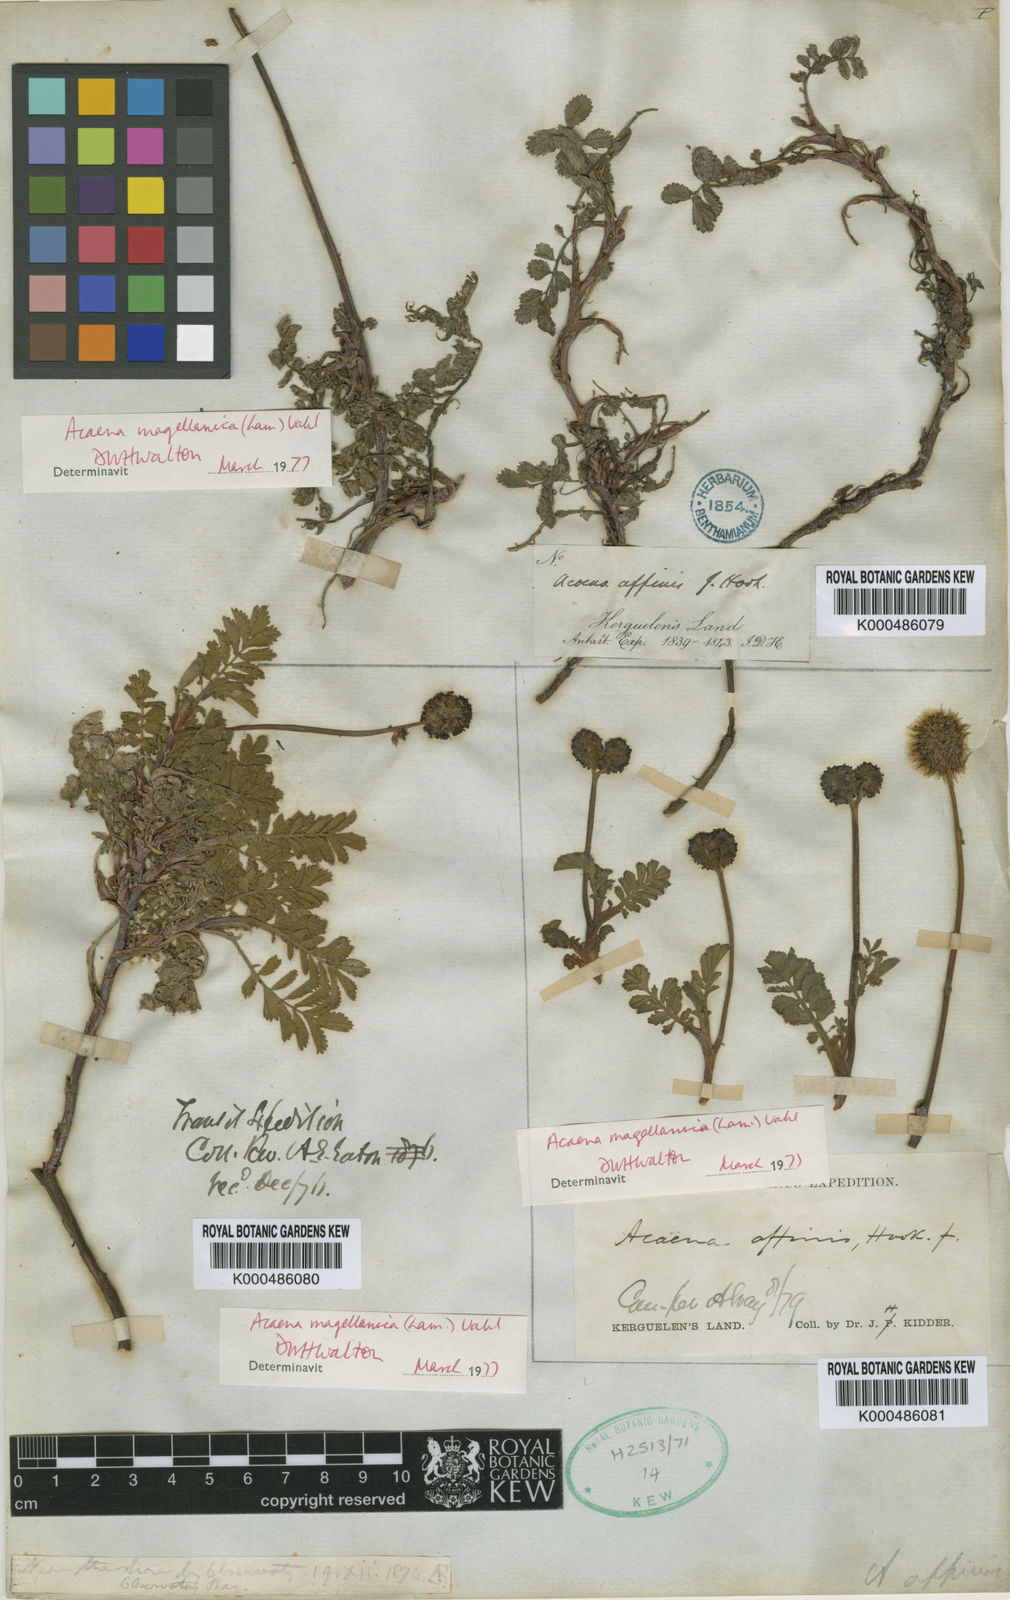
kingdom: Plantae
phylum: Tracheophyta
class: Magnoliopsida
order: Rosales
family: Rosaceae
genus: Acaena
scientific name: Acaena magellanica
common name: New zealand burr
